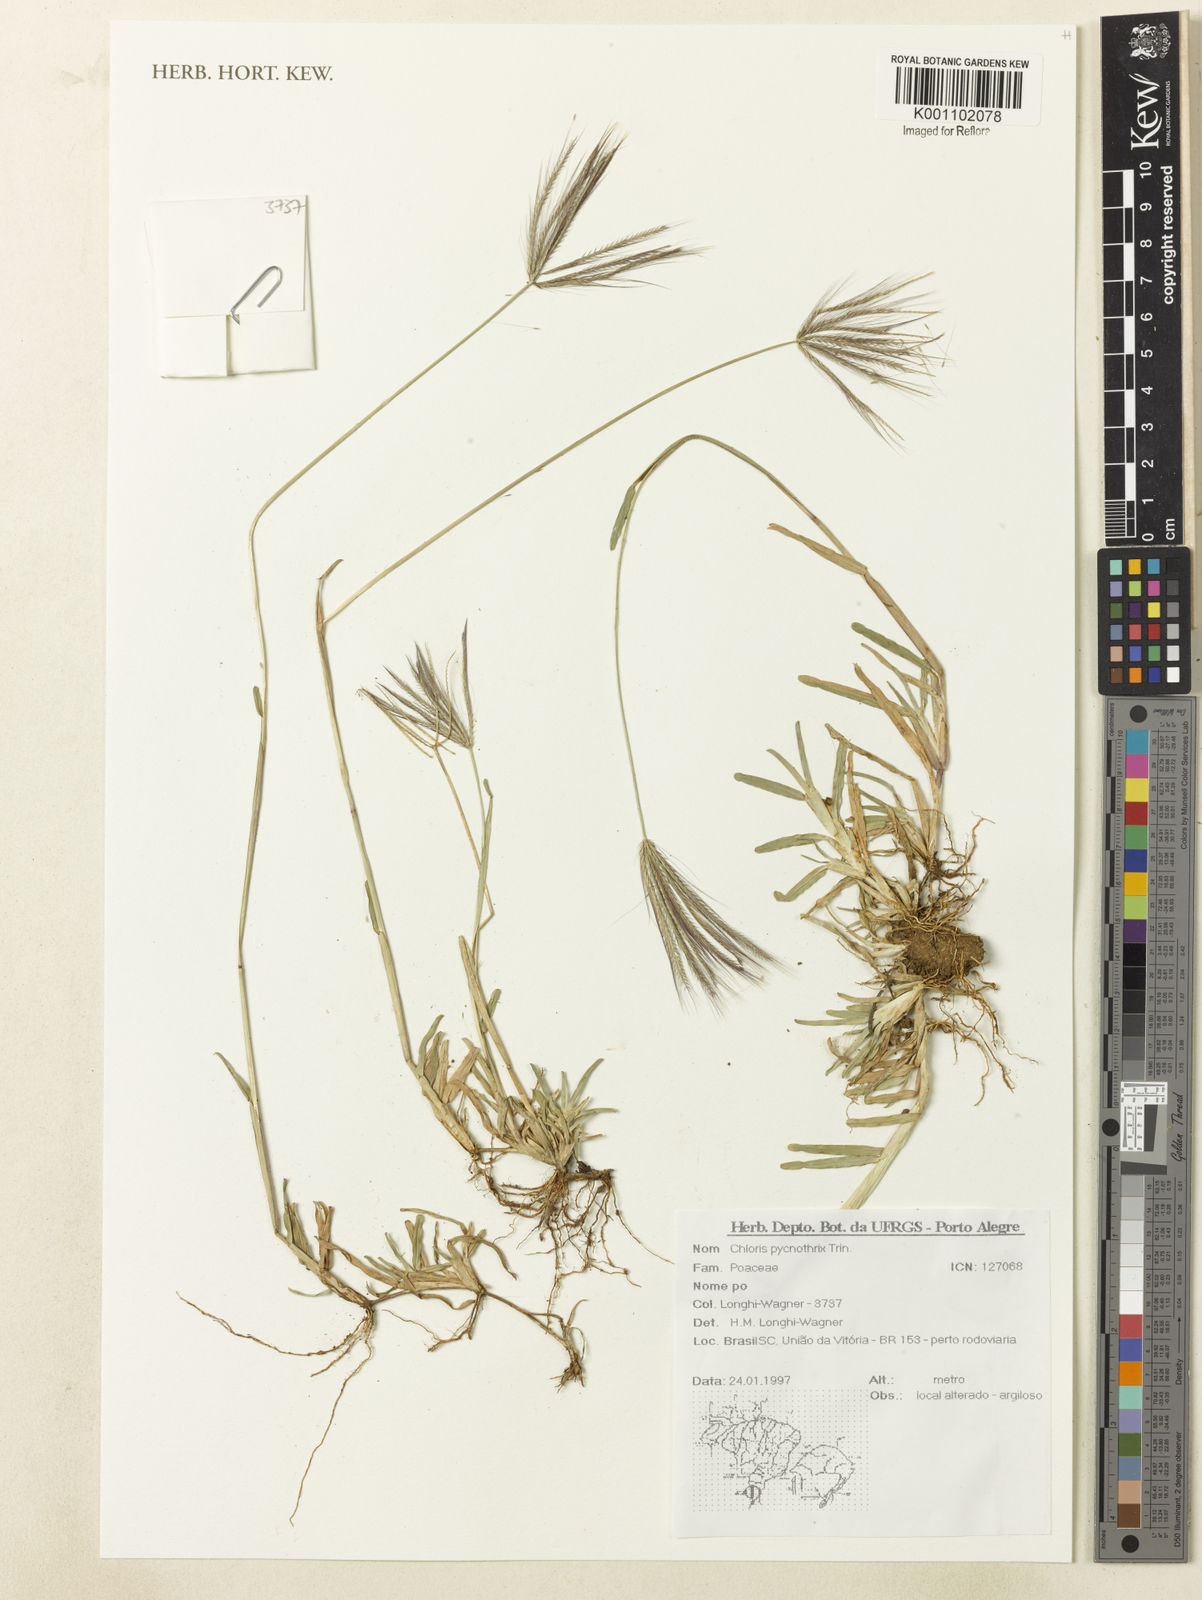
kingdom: Plantae
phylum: Tracheophyta
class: Liliopsida
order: Poales
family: Poaceae
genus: Chloris
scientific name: Chloris pycnothrix
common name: Spiderweb chloris
